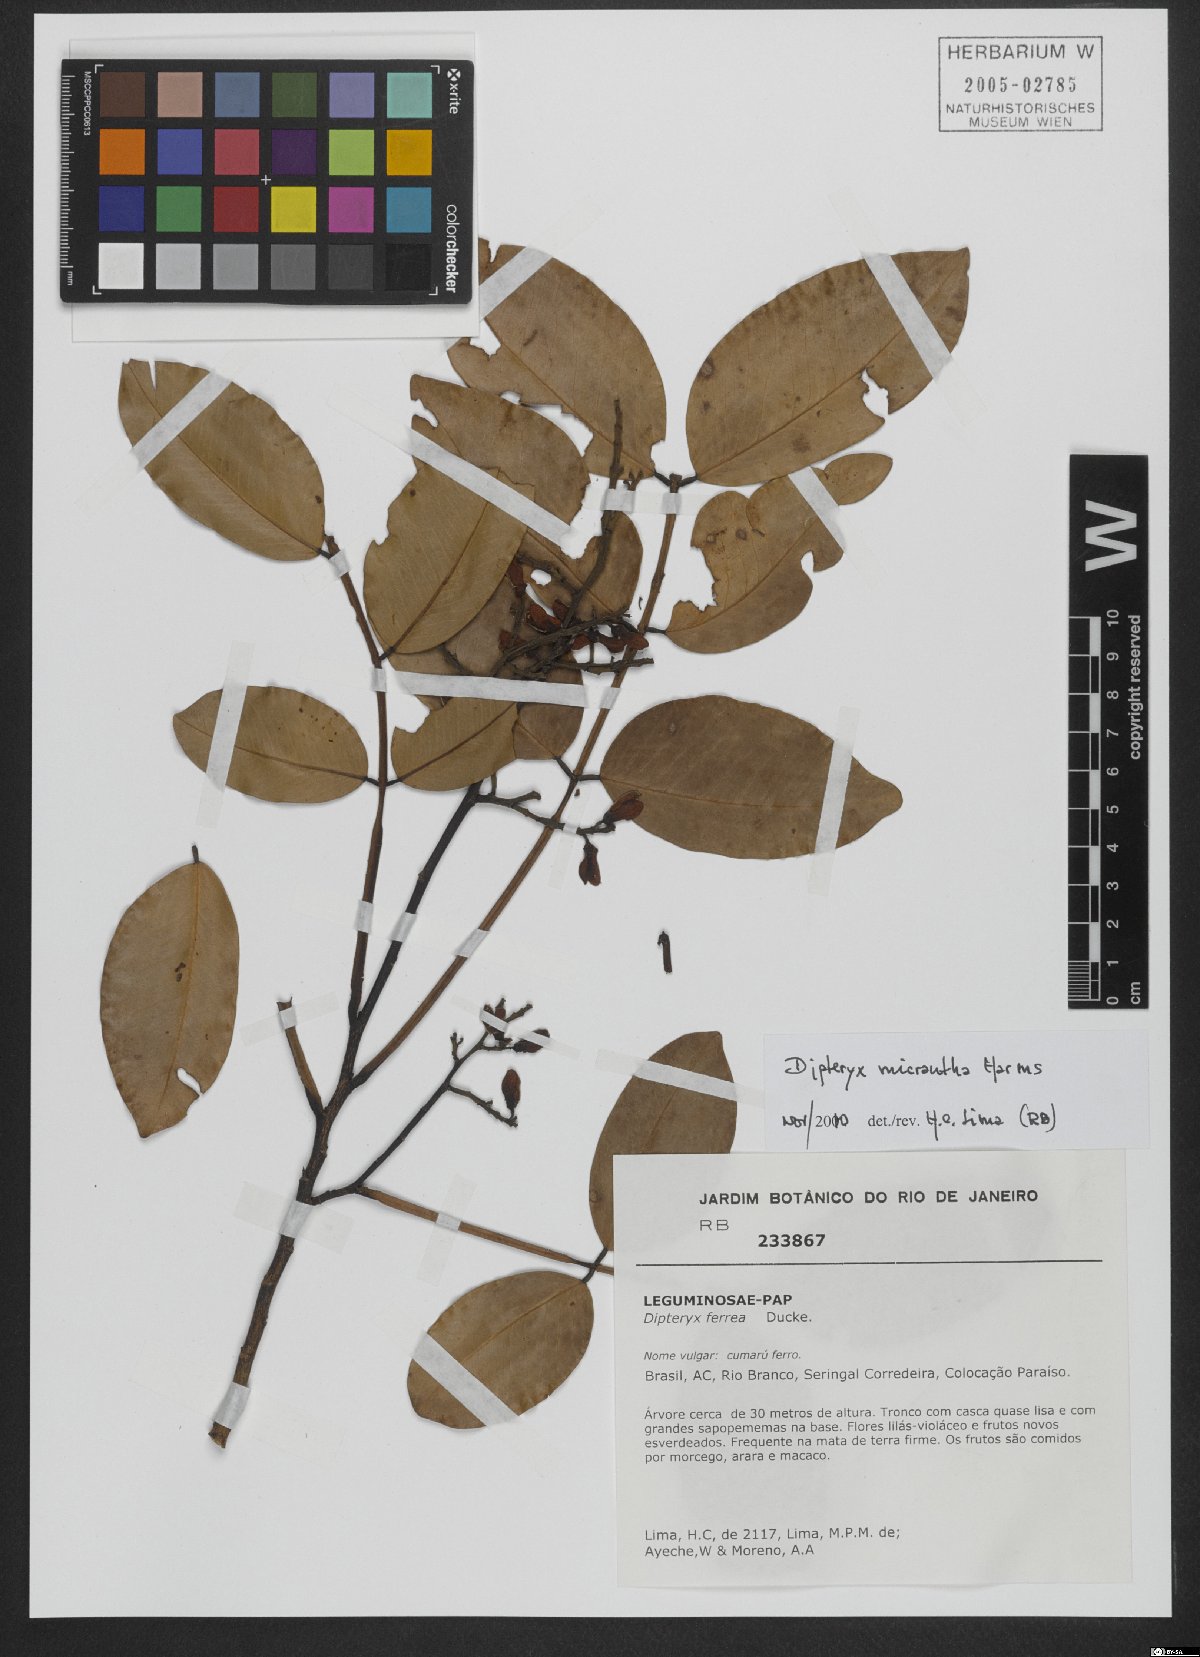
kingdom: Plantae
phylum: Tracheophyta
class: Magnoliopsida
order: Fabales
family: Fabaceae
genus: Dipteryx
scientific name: Dipteryx micrantha
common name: Brazilian teak
